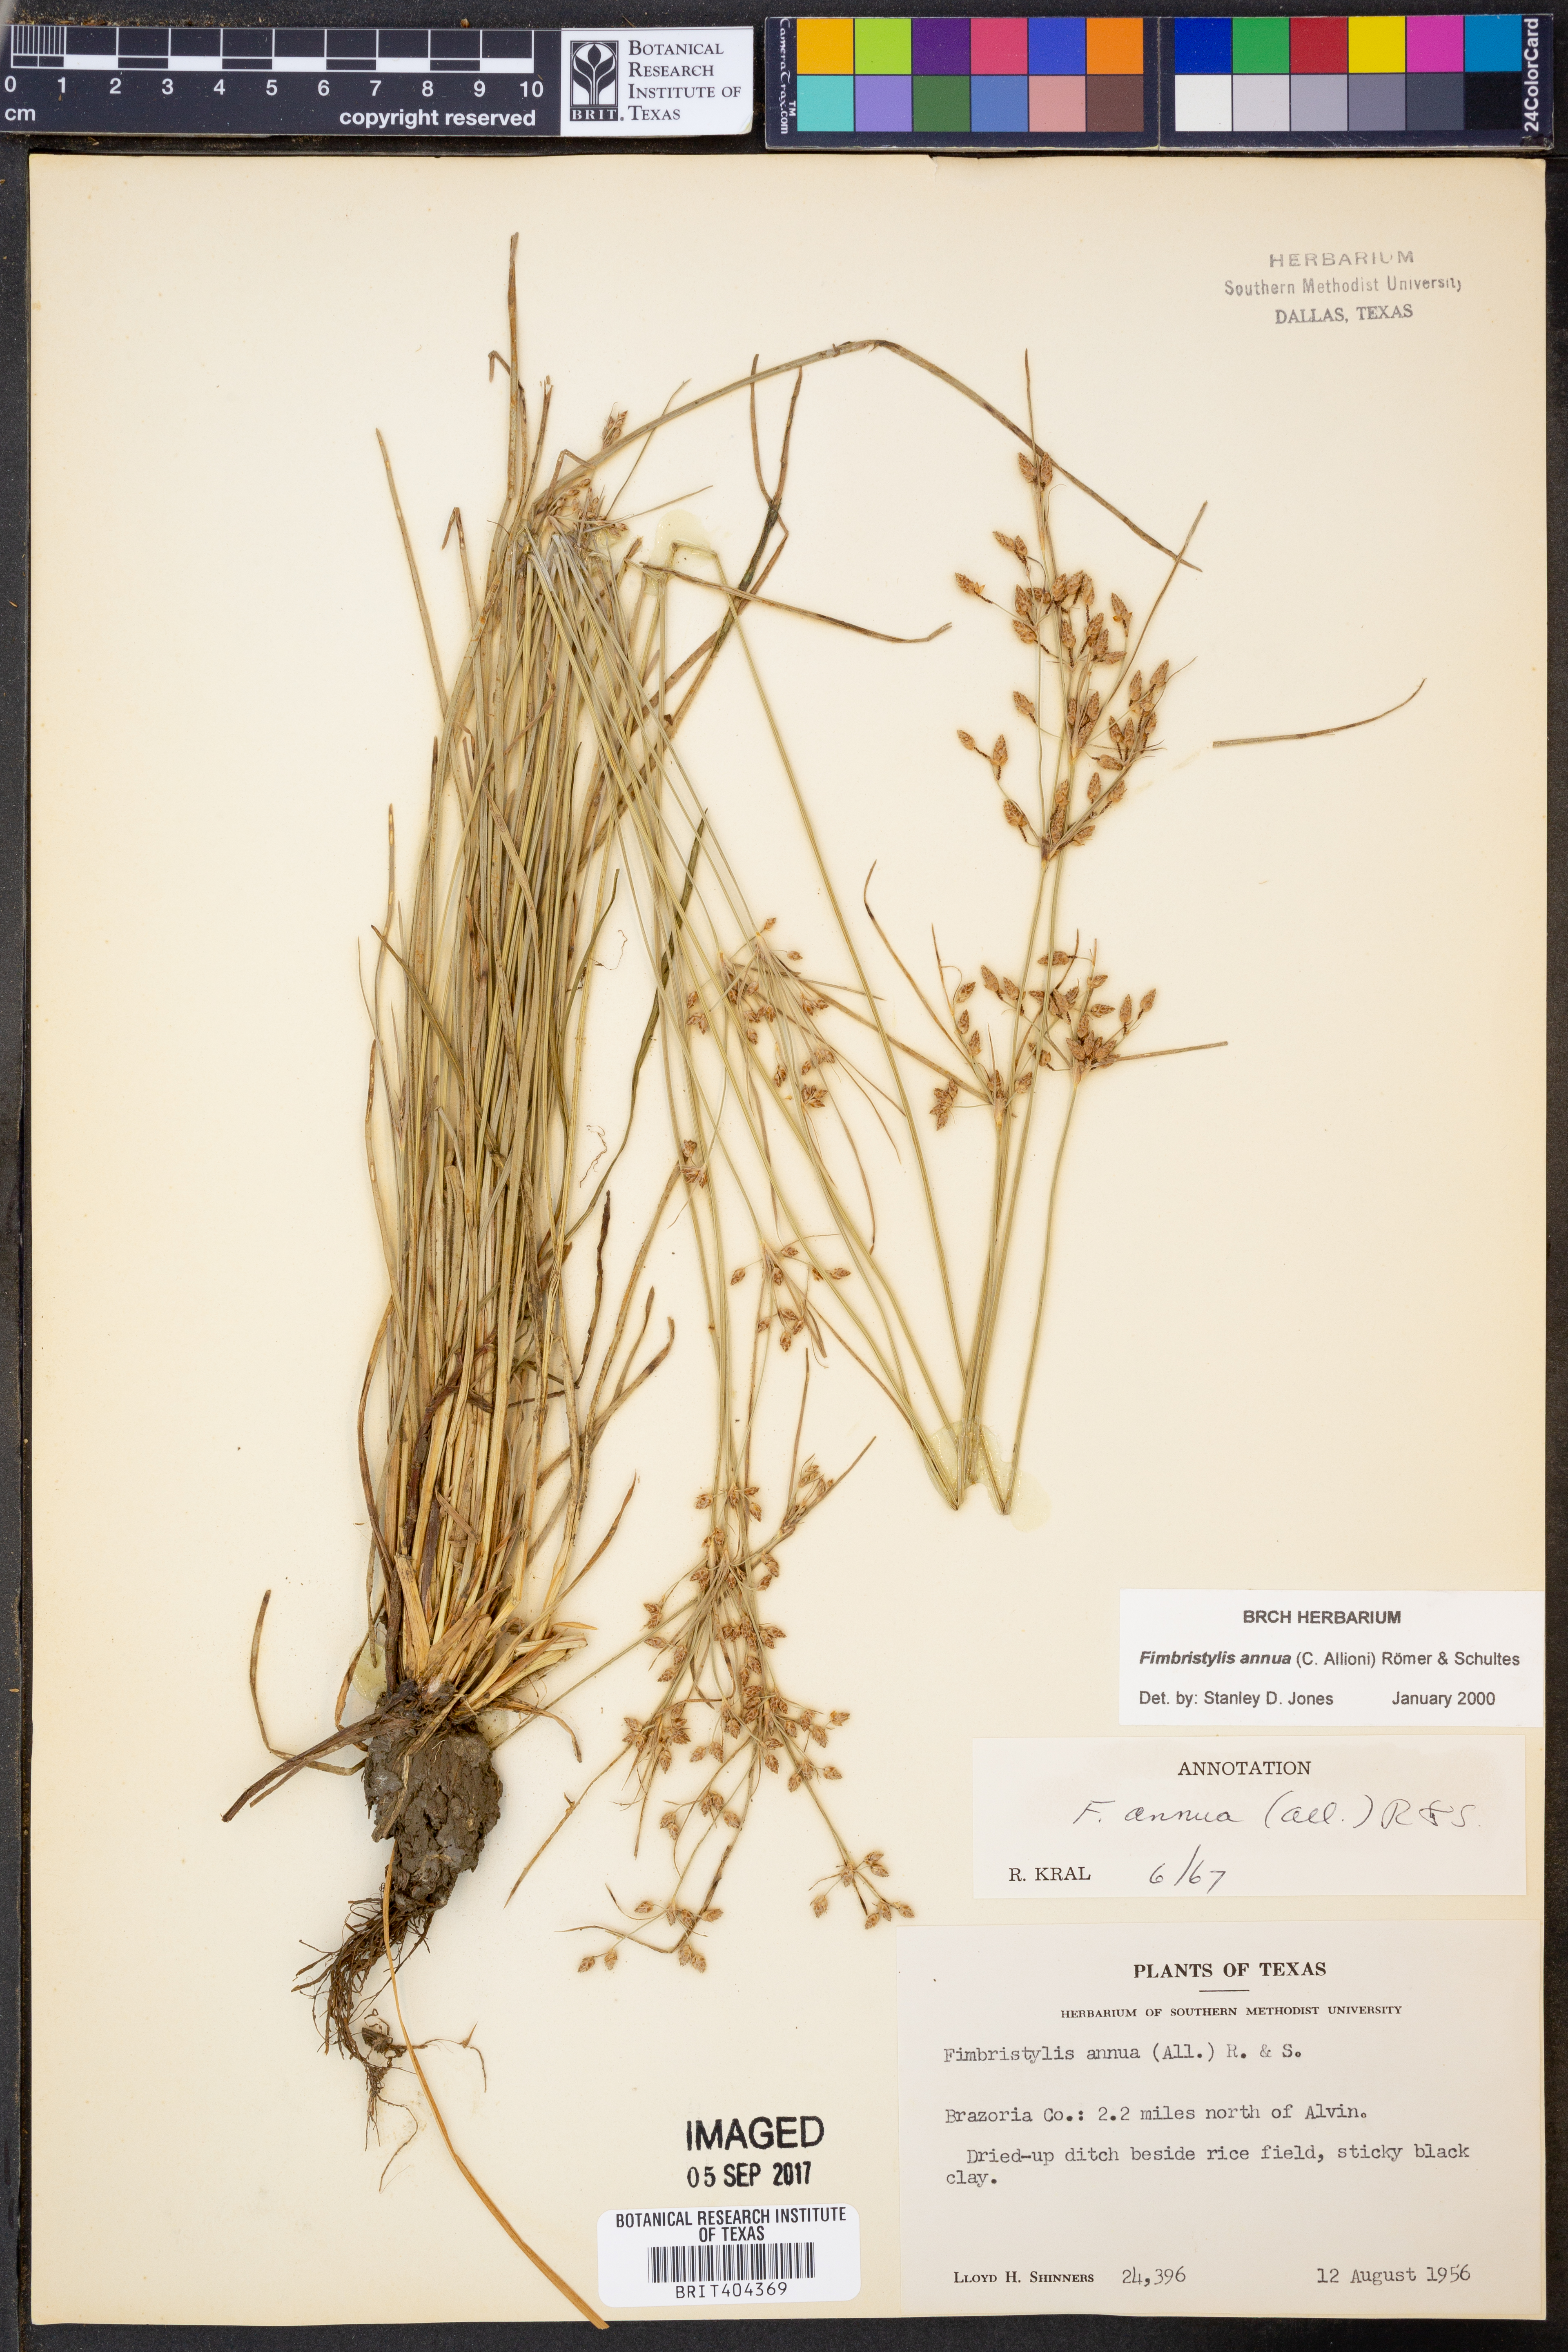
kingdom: Plantae
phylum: Tracheophyta
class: Liliopsida
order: Poales
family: Cyperaceae
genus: Fimbristylis
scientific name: Fimbristylis dichotoma
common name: Forked fimbry
